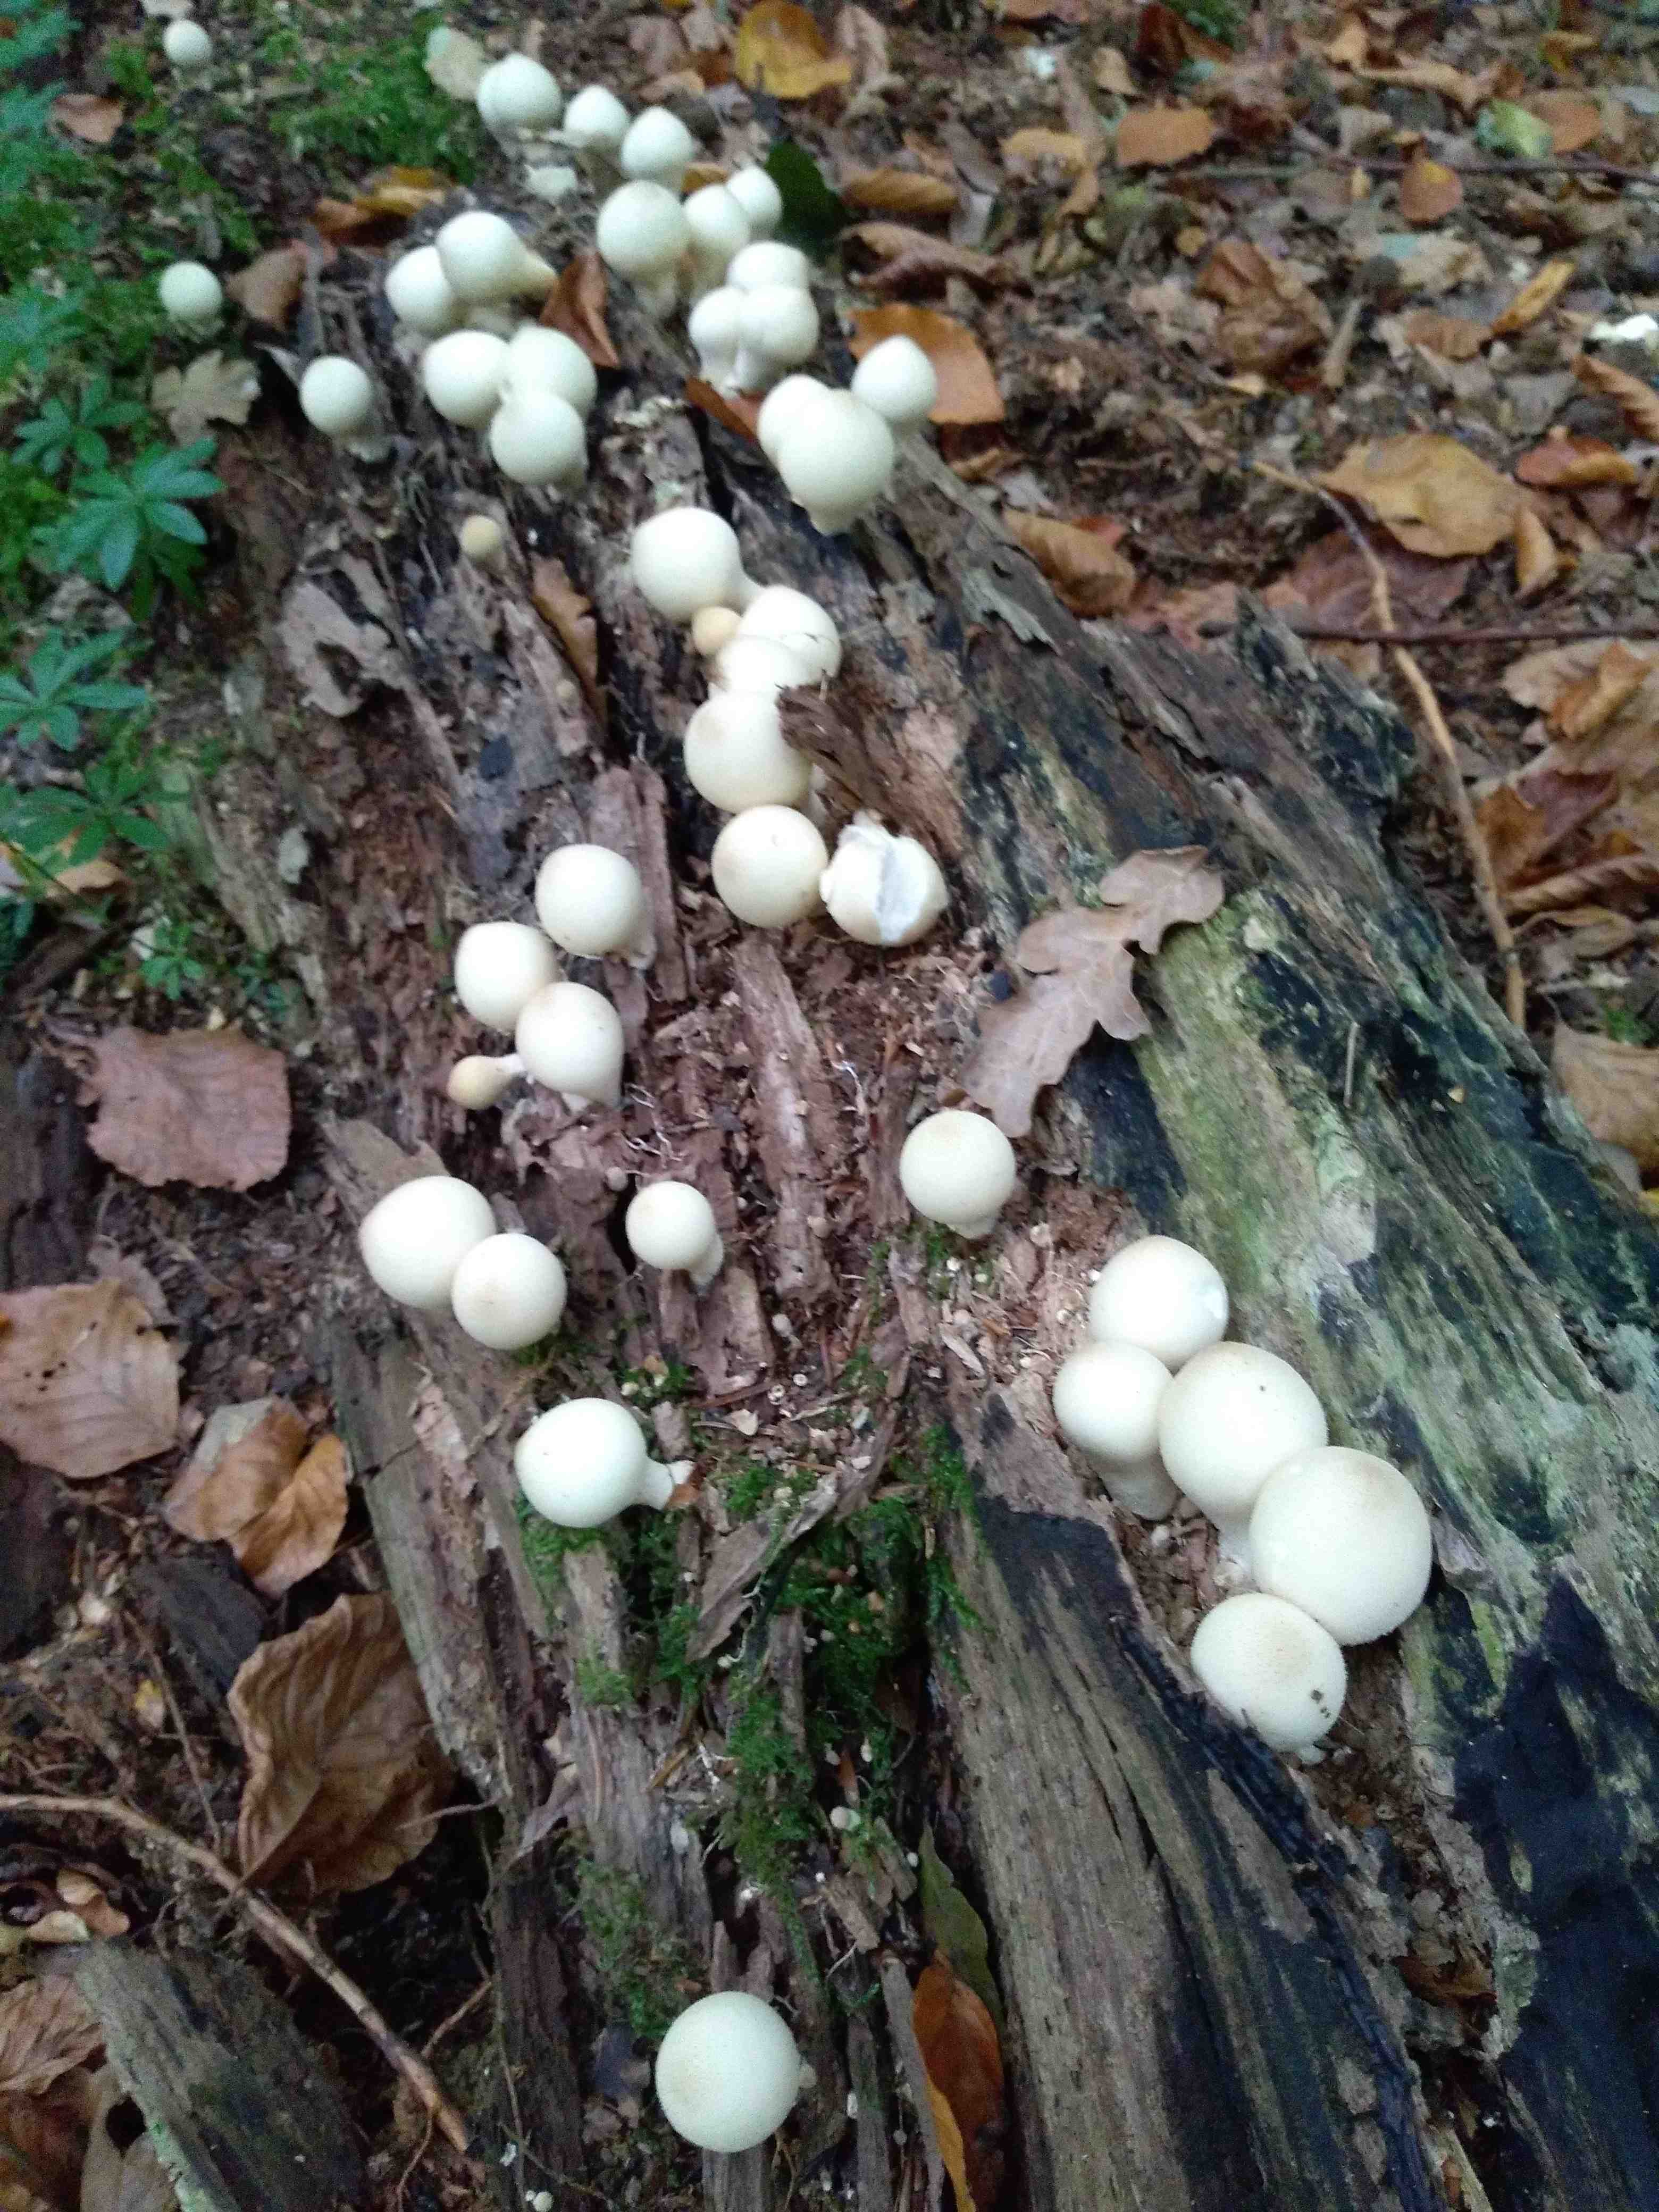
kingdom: Fungi
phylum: Basidiomycota
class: Agaricomycetes
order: Agaricales
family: Lycoperdaceae
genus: Apioperdon
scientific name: Apioperdon pyriforme
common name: pære-støvbold
